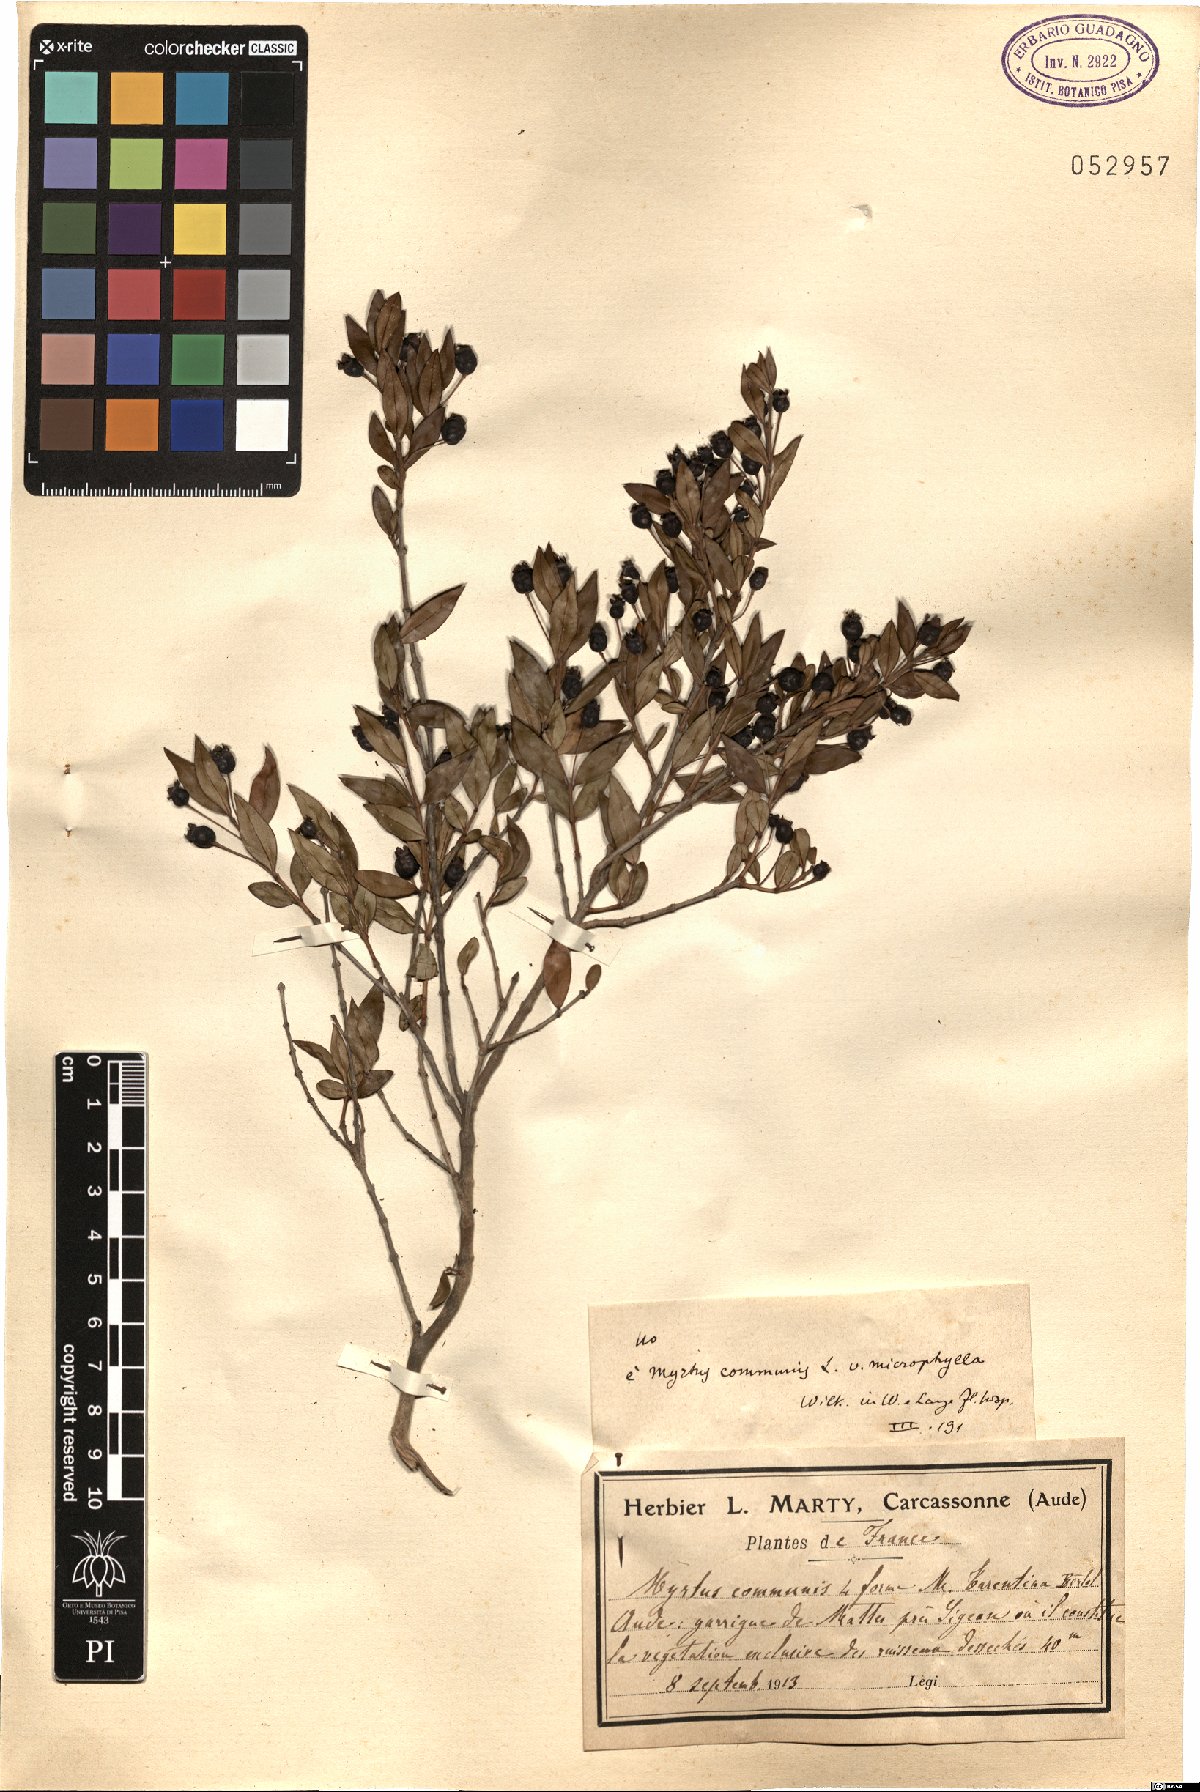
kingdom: Plantae
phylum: Tracheophyta
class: Magnoliopsida
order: Myrtales
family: Myrtaceae
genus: Myrtus
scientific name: Myrtus communis
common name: Myrtle
